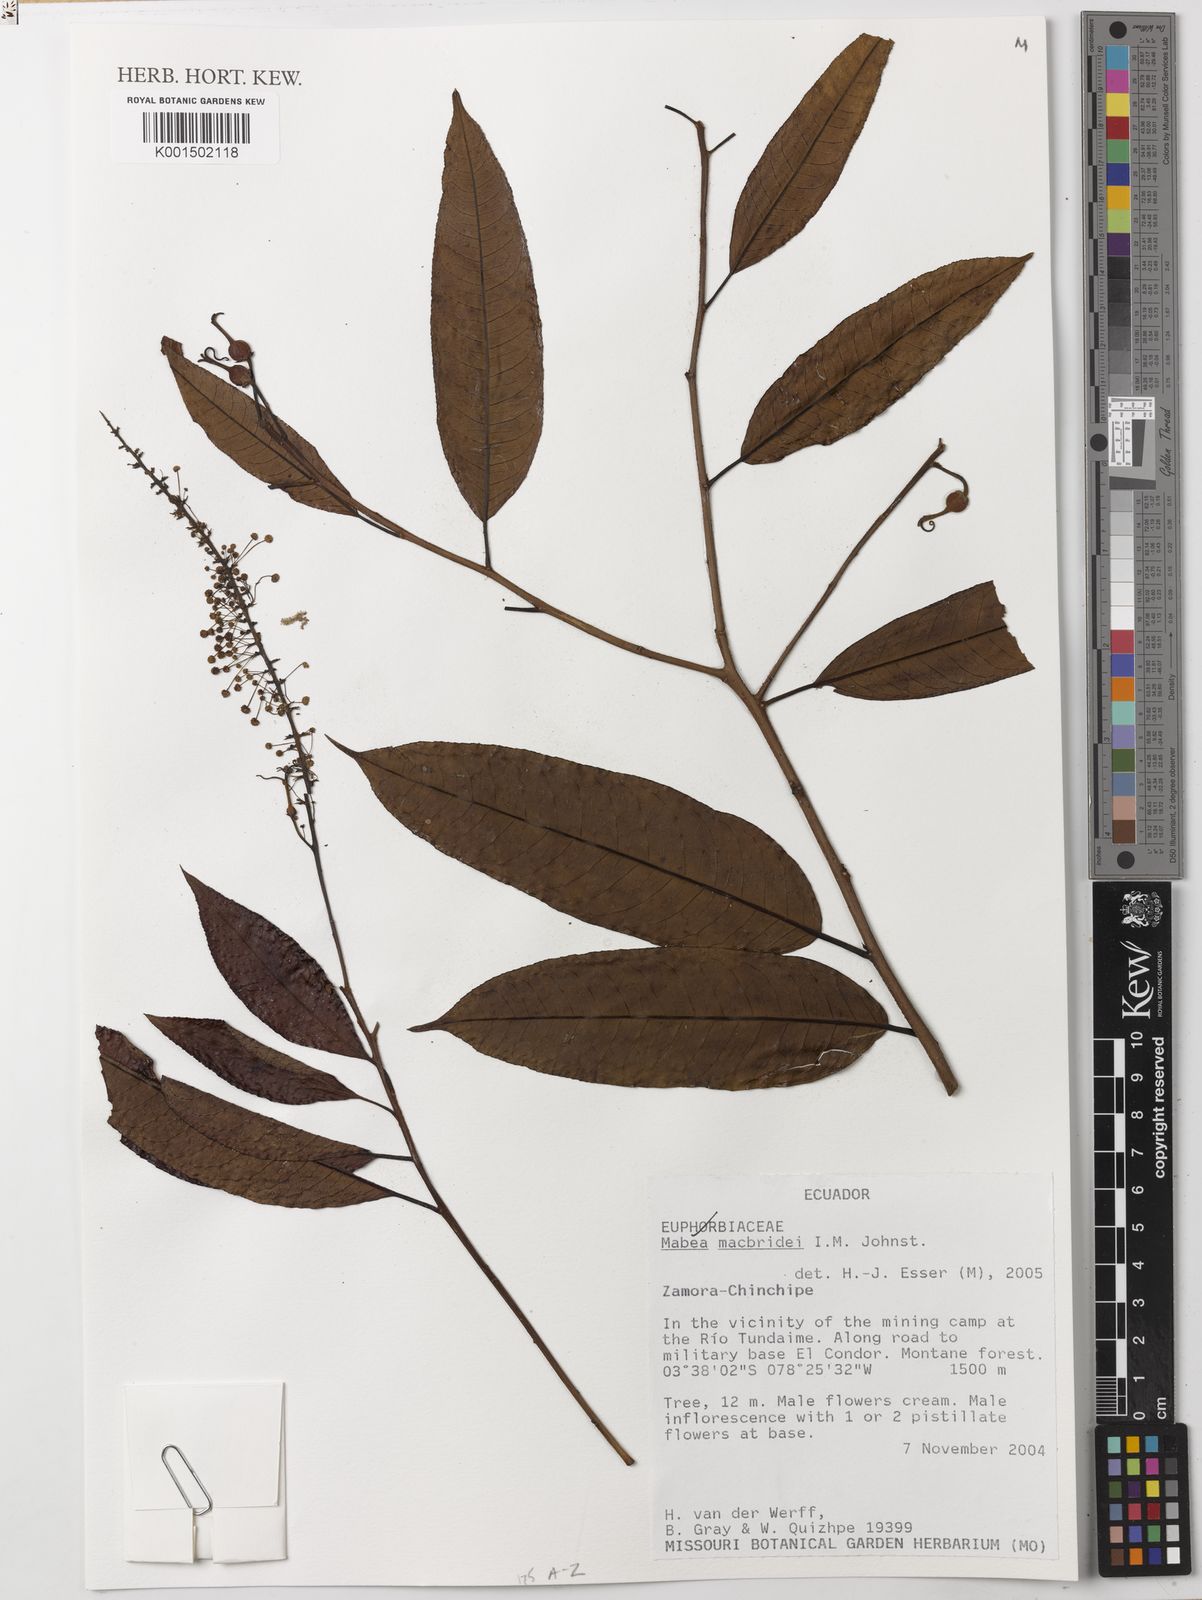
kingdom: Plantae
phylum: Tracheophyta
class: Magnoliopsida
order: Malpighiales
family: Euphorbiaceae
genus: Mabea
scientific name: Mabea macbridei
